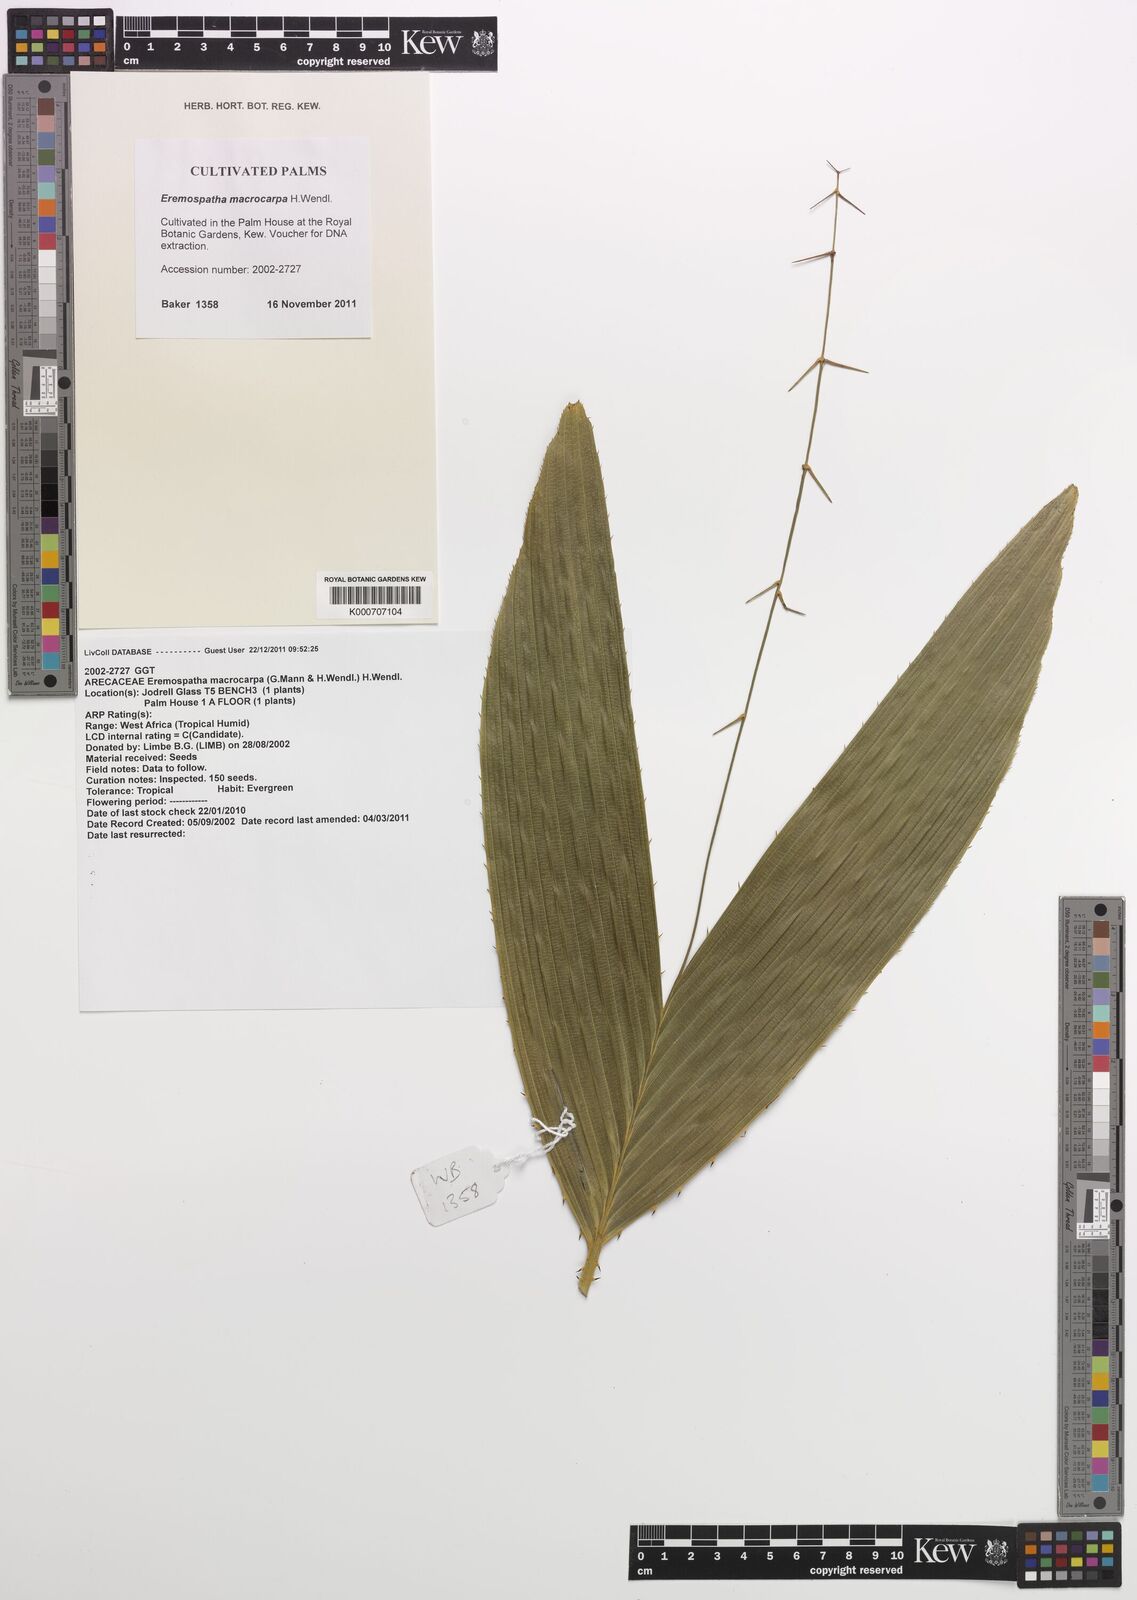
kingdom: Plantae
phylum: Tracheophyta
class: Liliopsida
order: Arecales
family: Arecaceae
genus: Eremospatha
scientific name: Eremospatha macrocarpa
